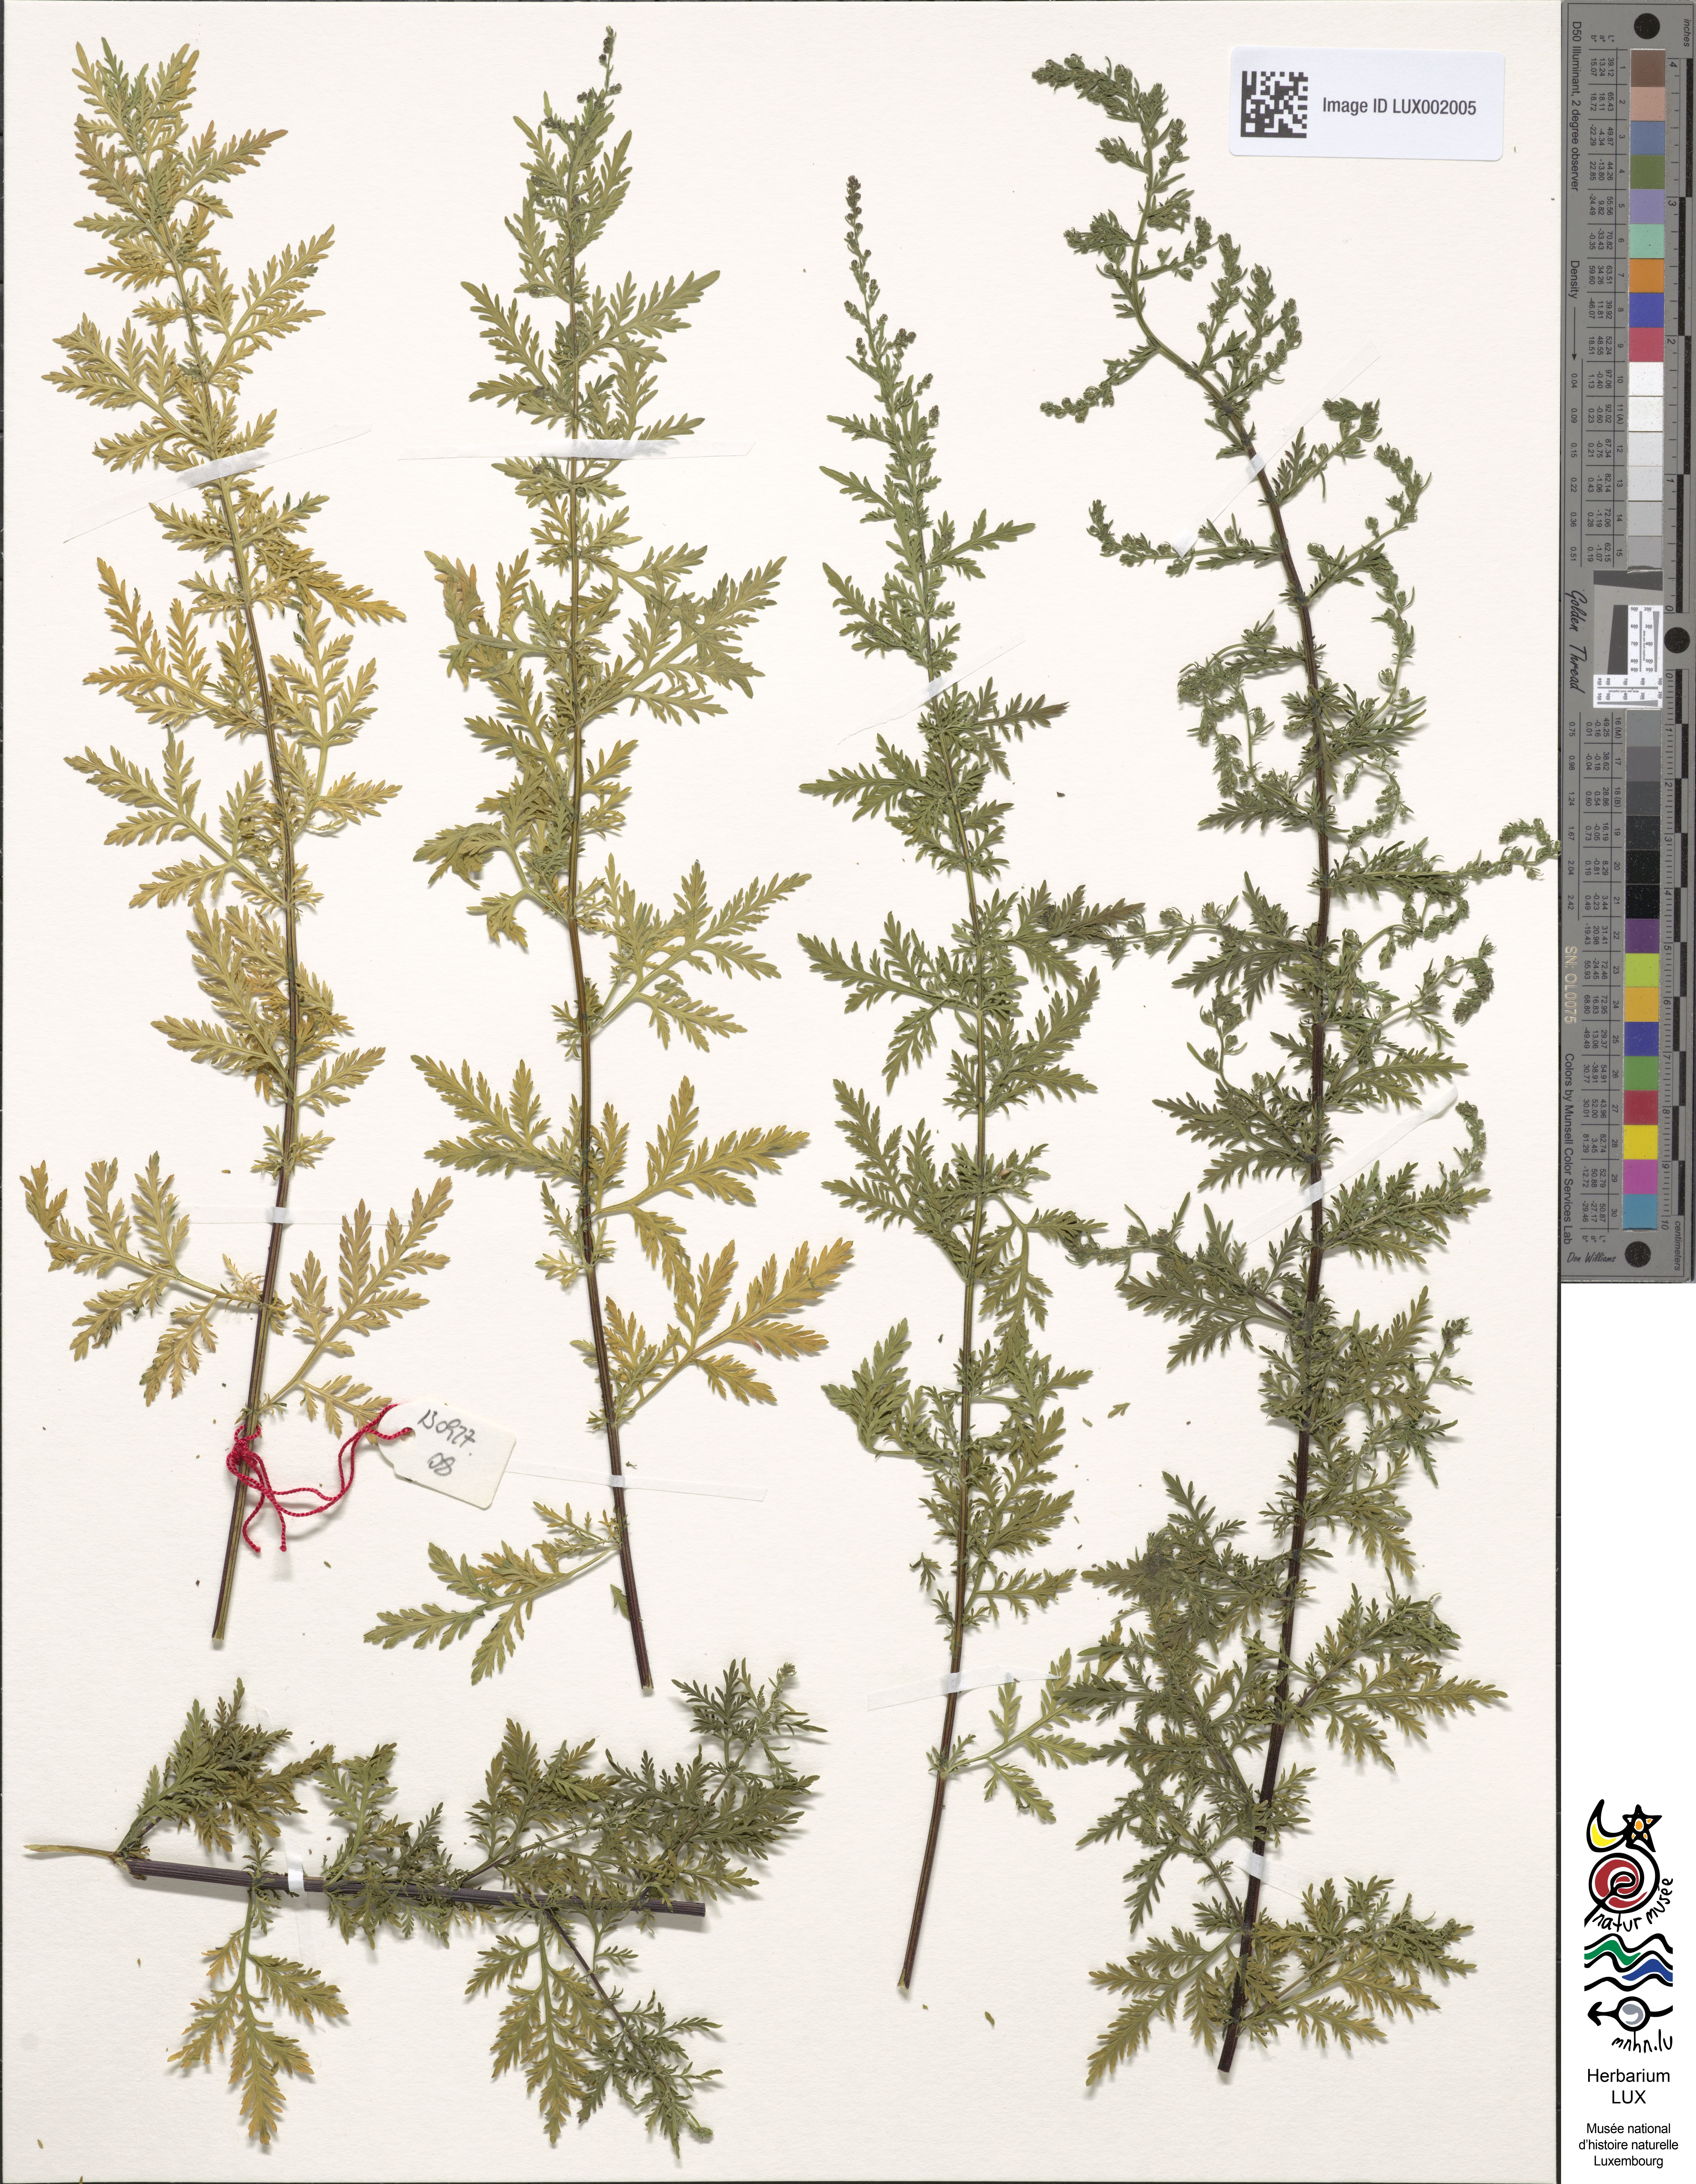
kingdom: Plantae
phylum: Tracheophyta
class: Magnoliopsida
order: Asterales
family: Asteraceae
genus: Artemisia
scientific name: Artemisia annua
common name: Sweet sagewort
